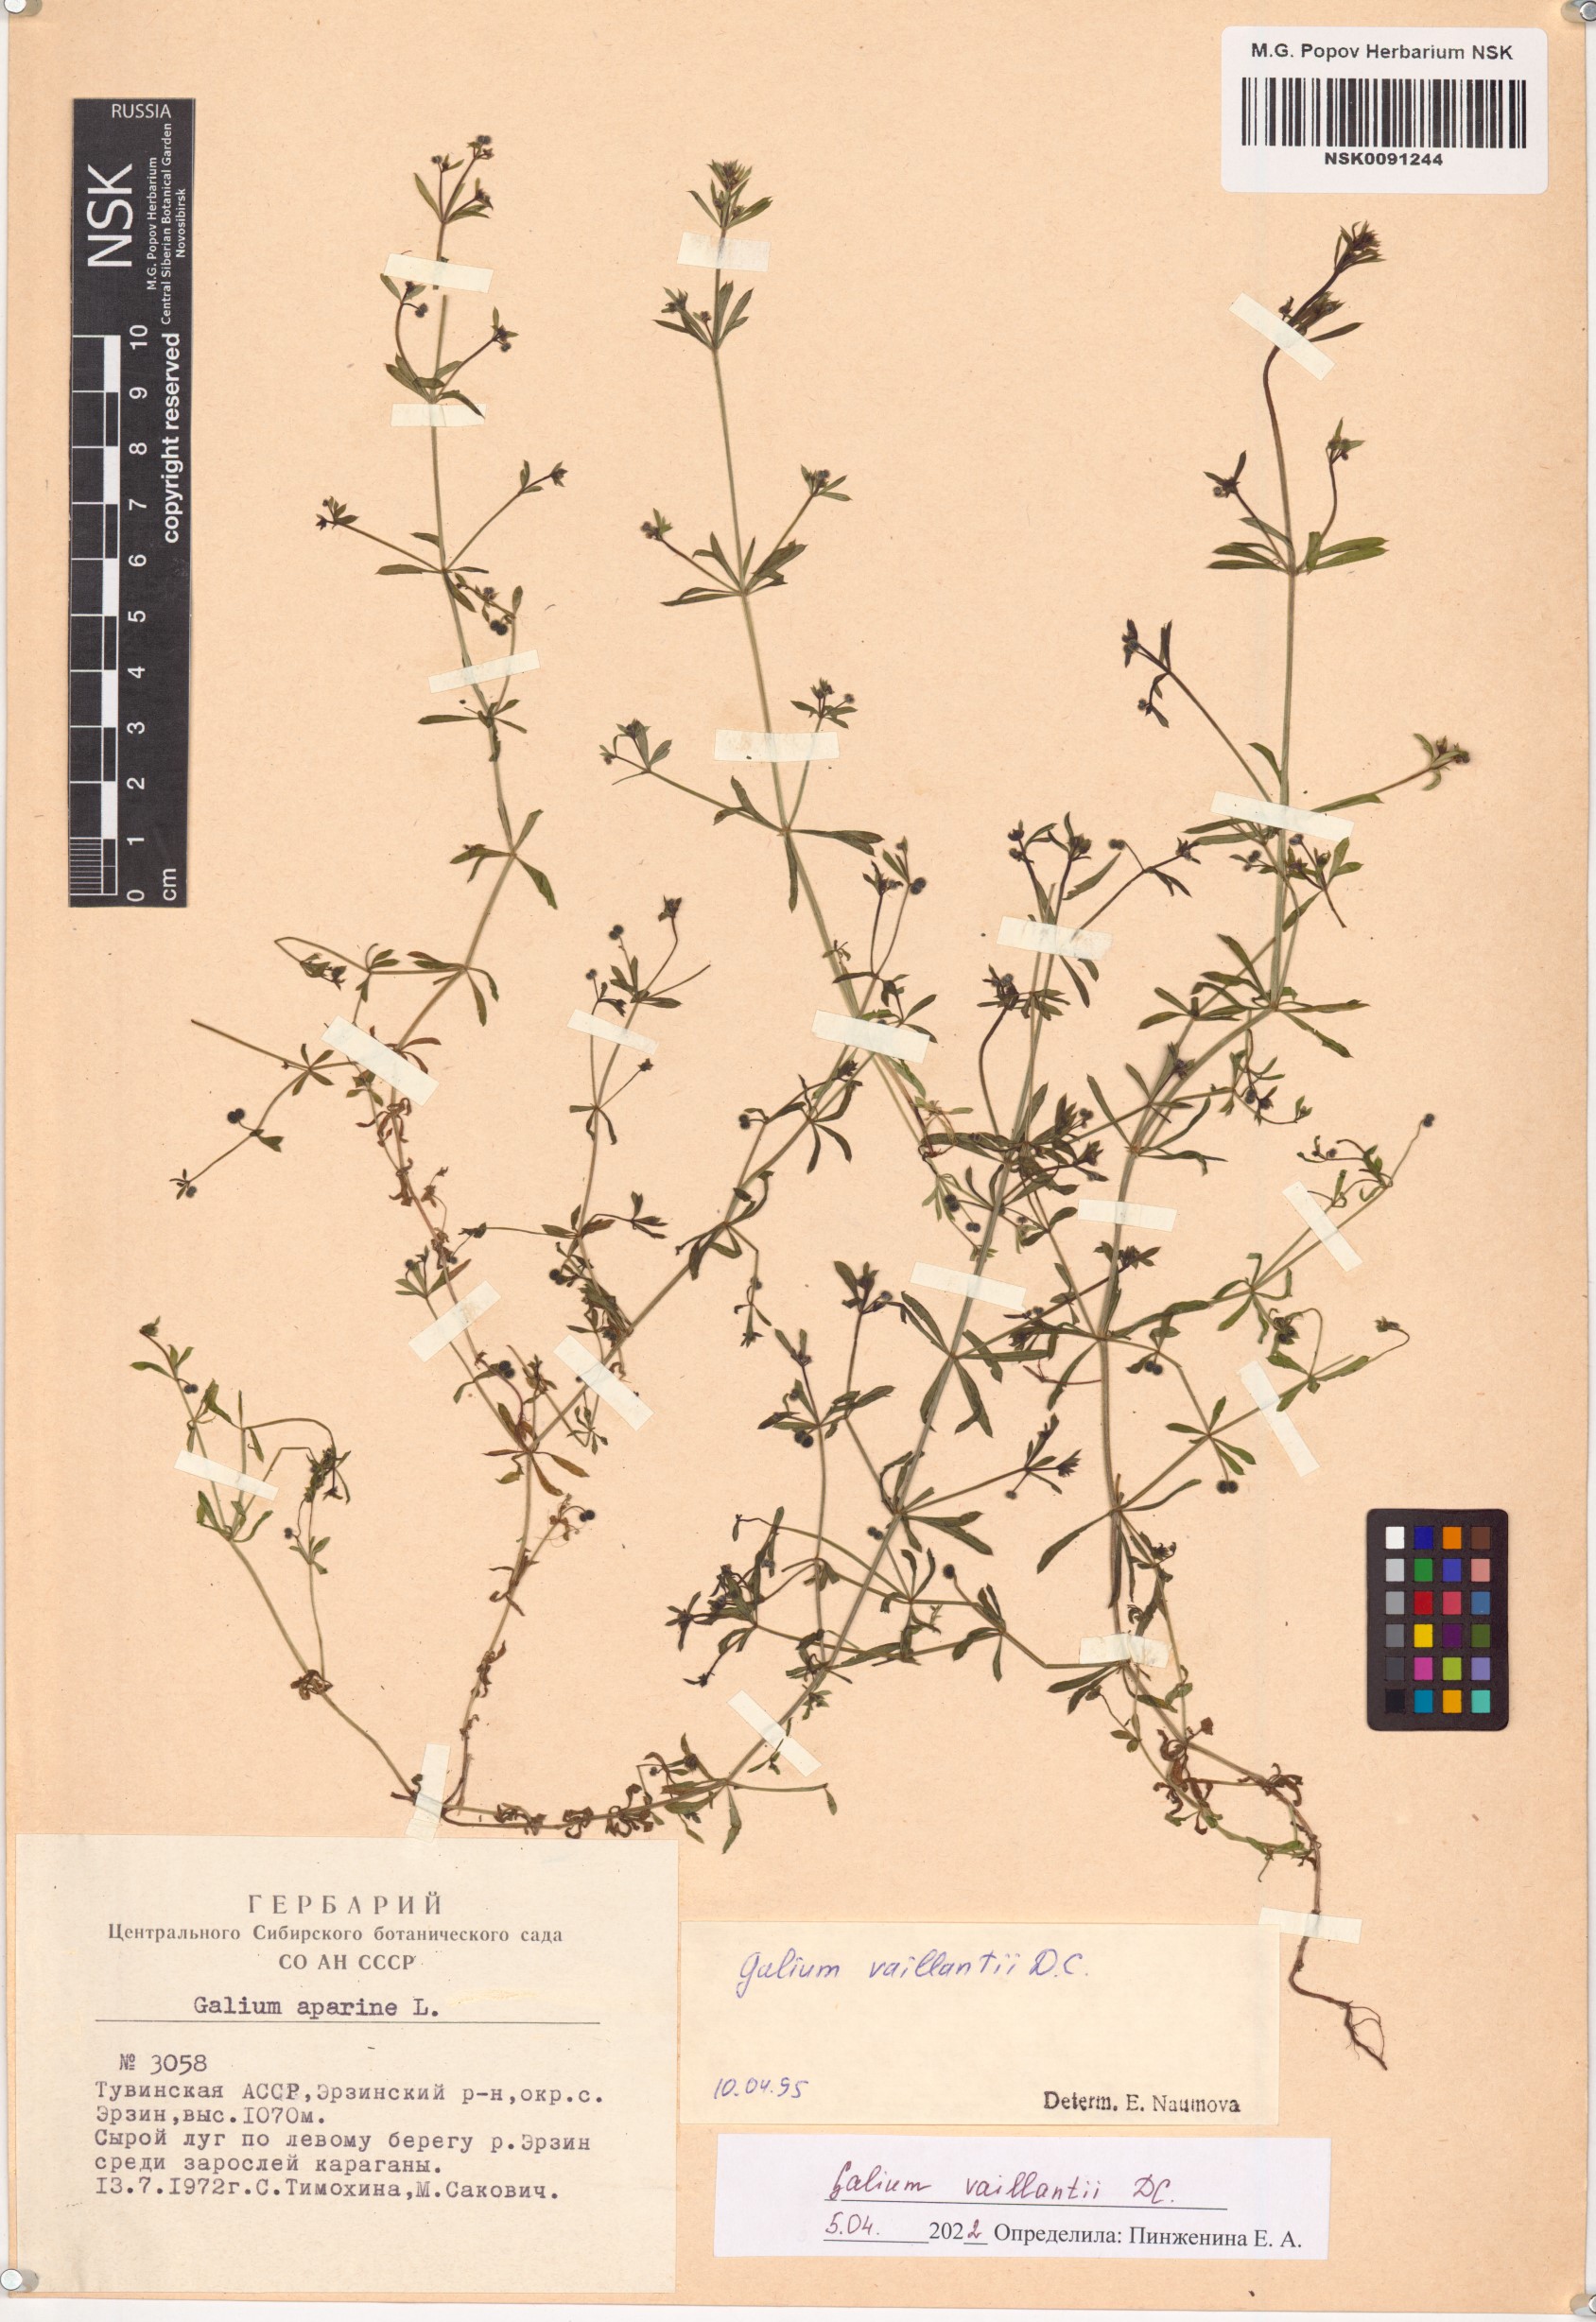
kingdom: Plantae
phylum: Tracheophyta
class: Magnoliopsida
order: Gentianales
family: Rubiaceae
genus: Galium
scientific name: Galium spurium
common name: False cleavers
